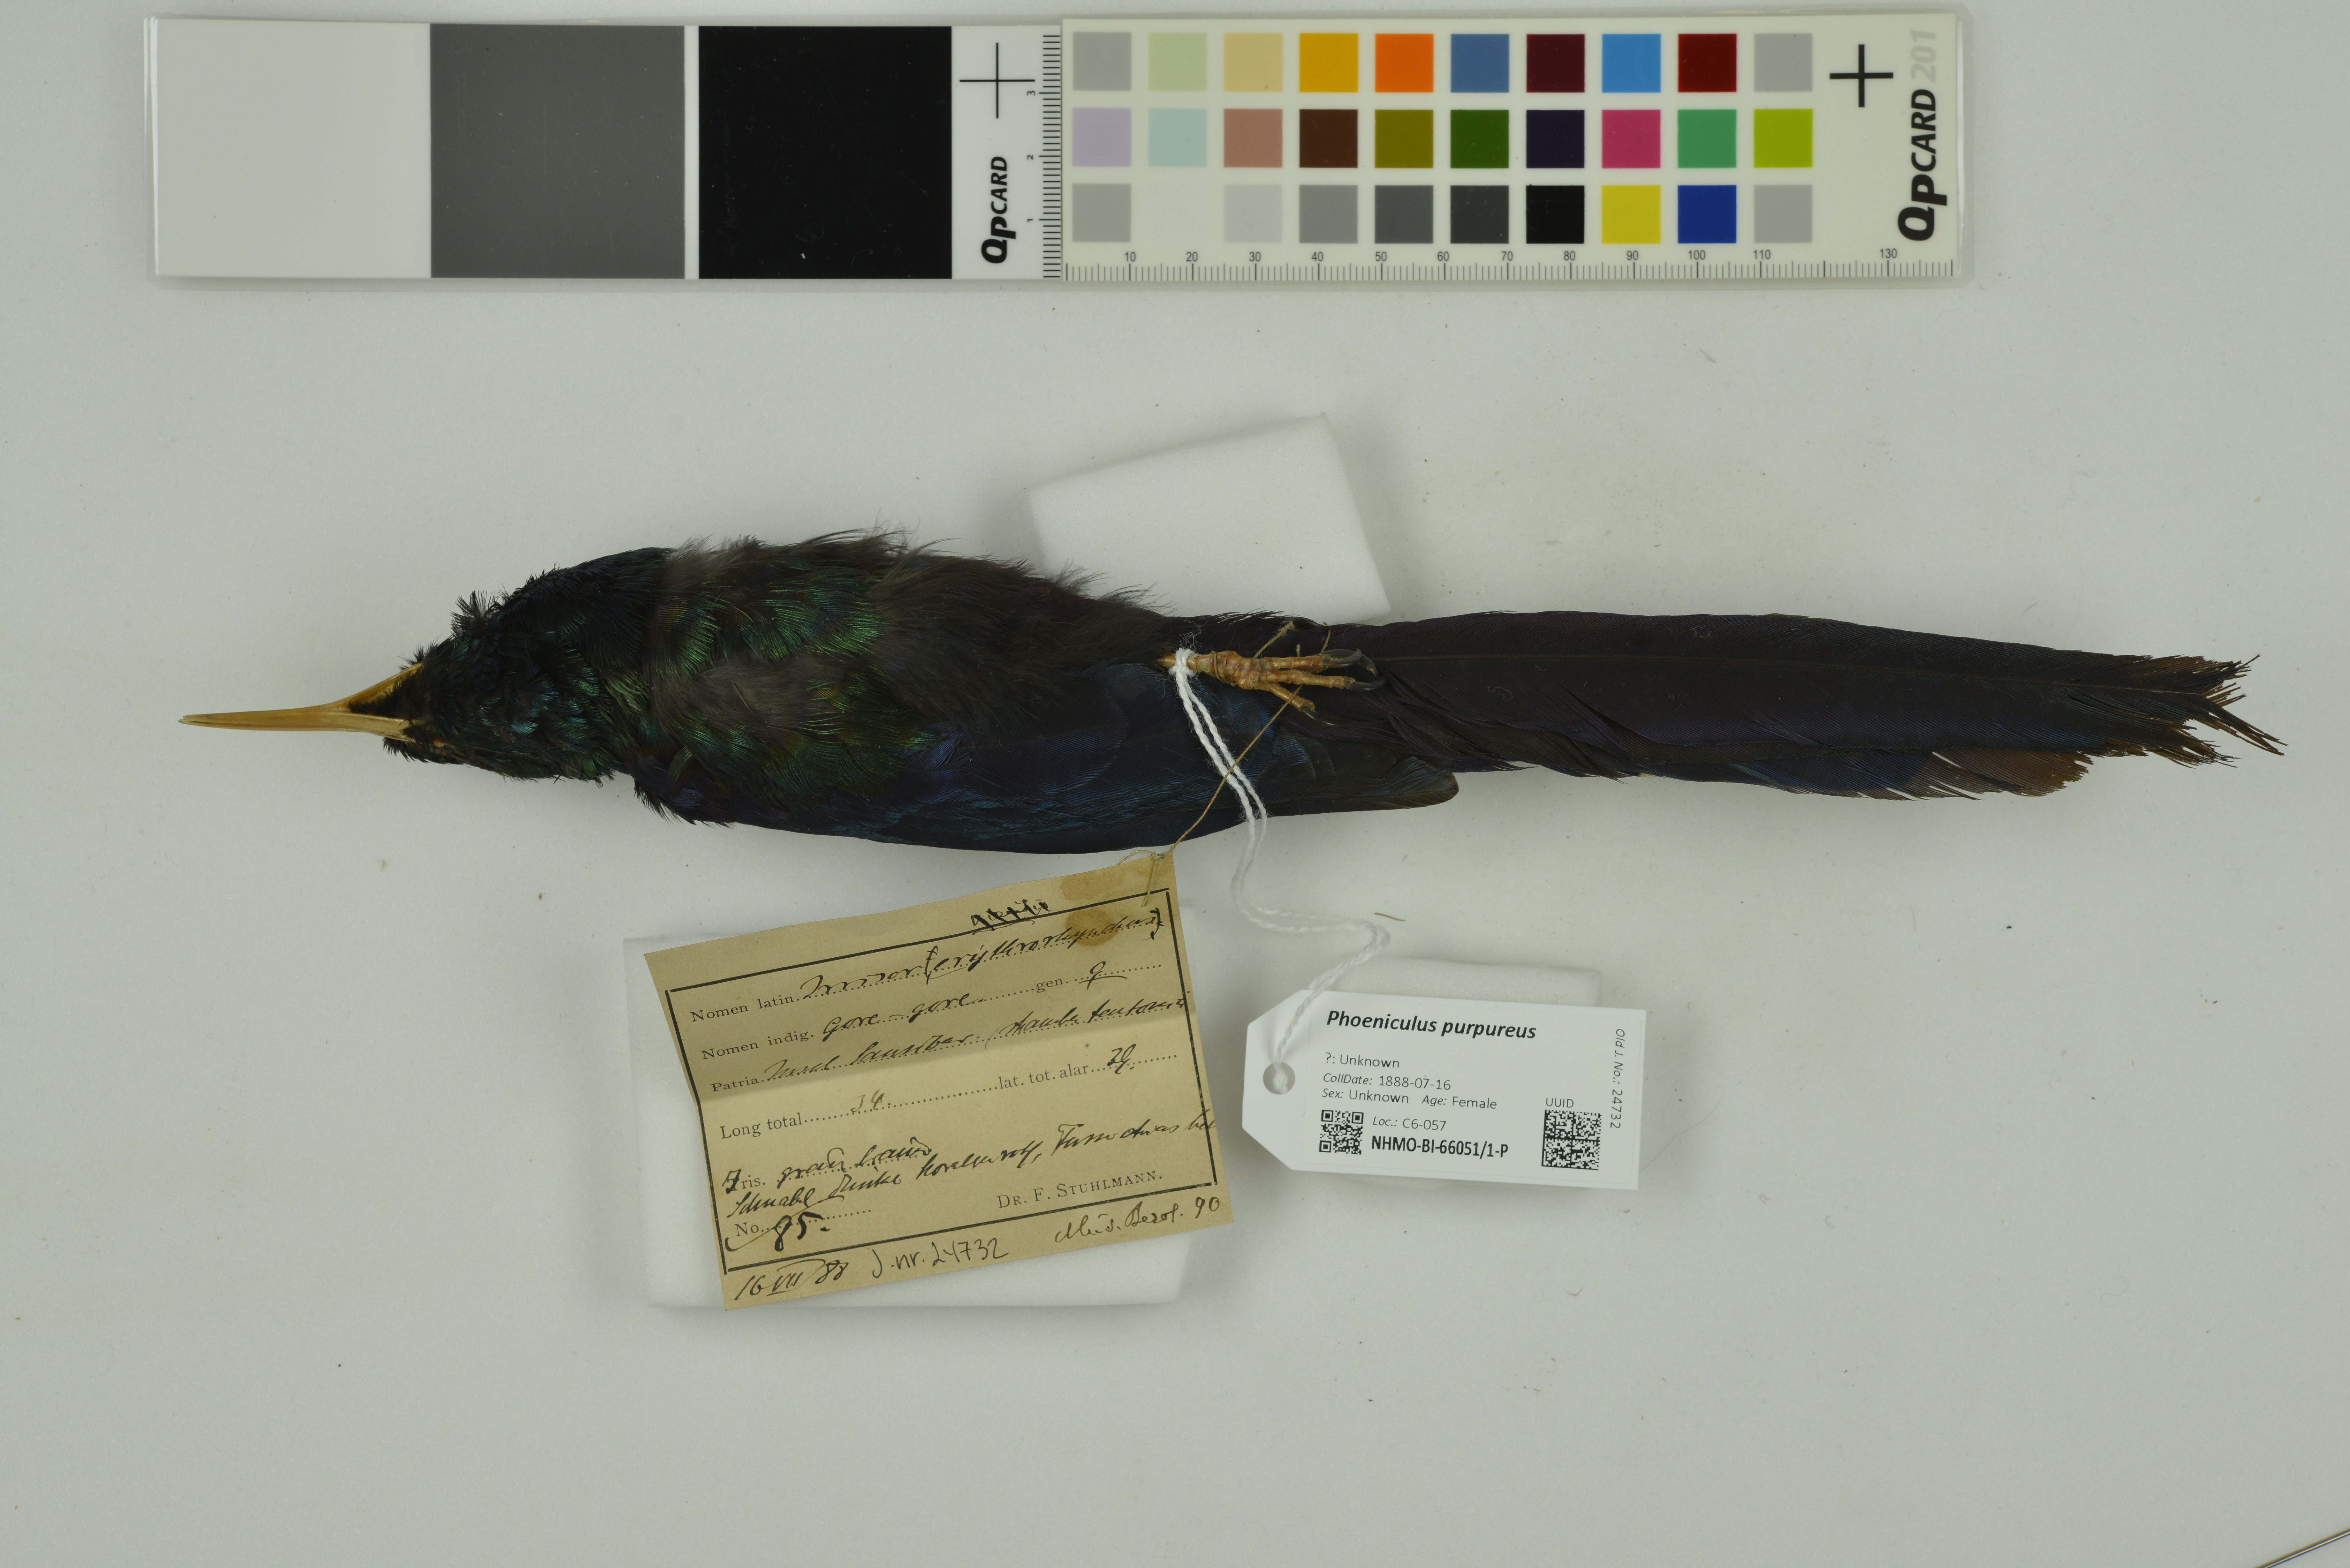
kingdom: Animalia
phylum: Chordata
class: Aves
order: Bucerotiformes
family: Phoeniculidae
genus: Phoeniculus
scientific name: Phoeniculus purpureus
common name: Green woodhoopoe
